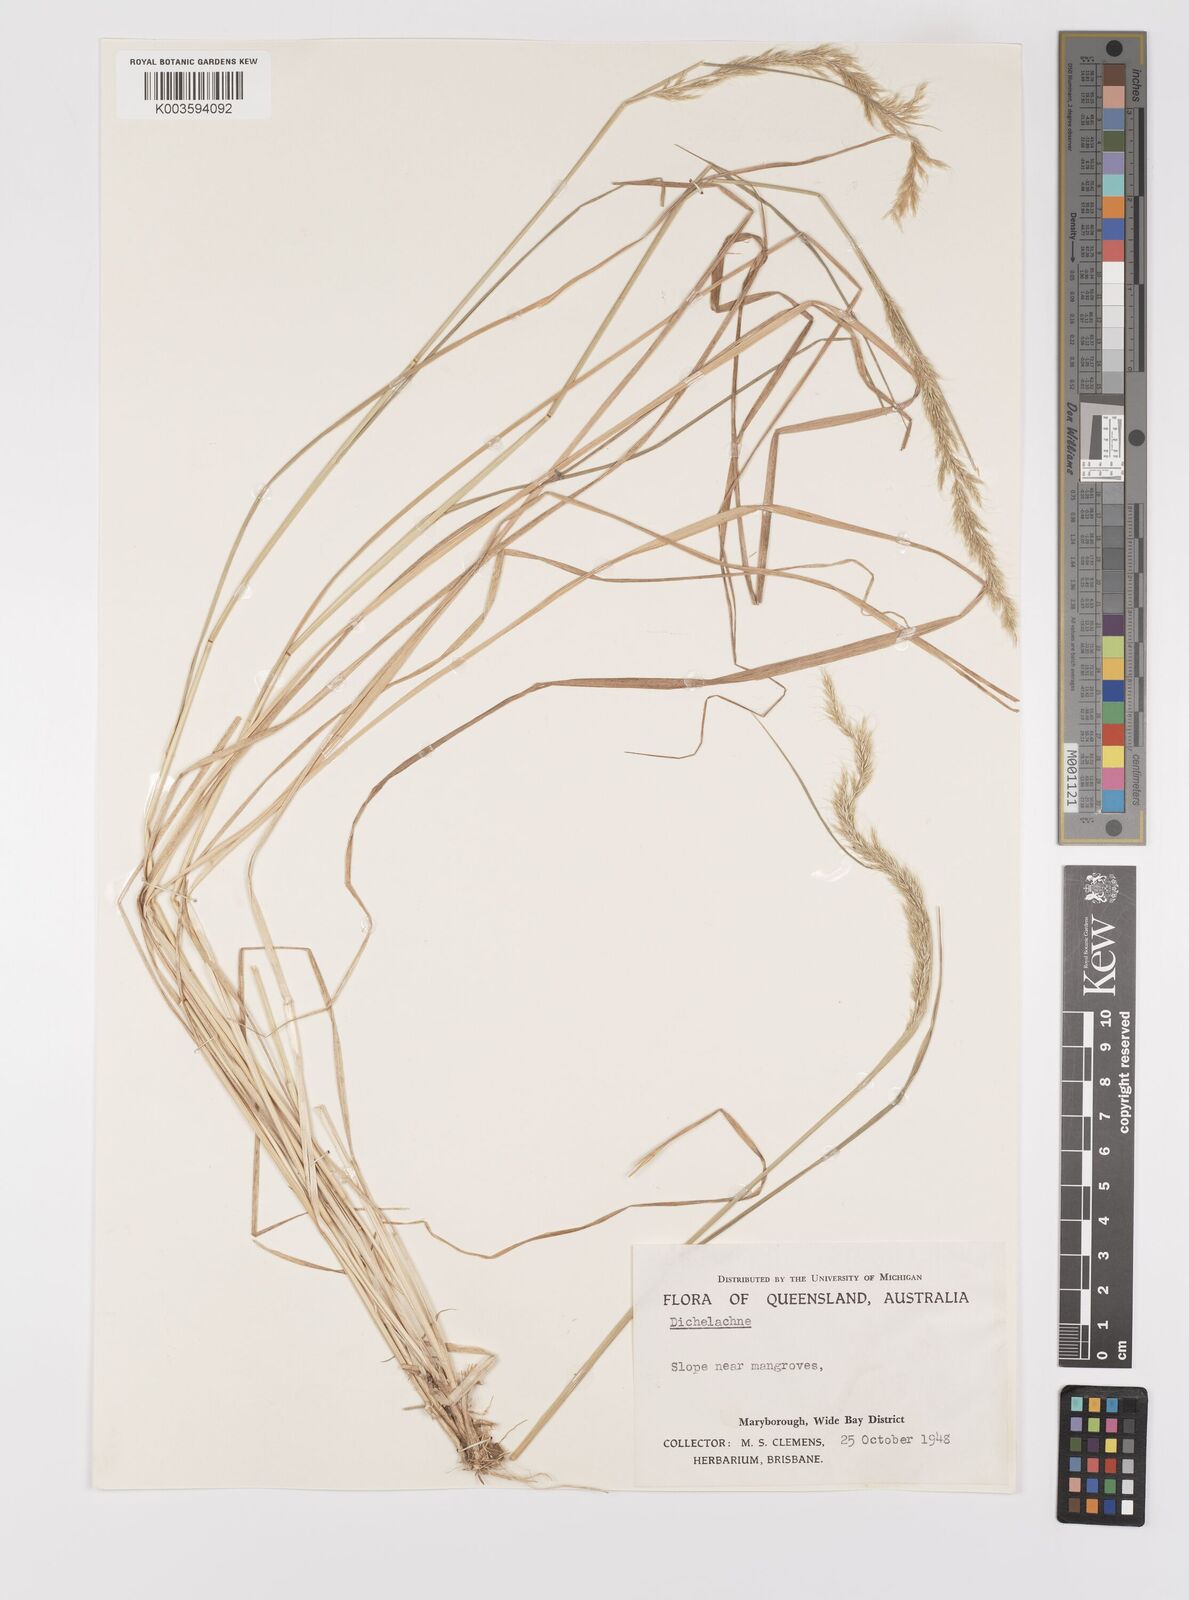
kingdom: Plantae
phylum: Tracheophyta
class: Liliopsida
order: Poales
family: Poaceae
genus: Dichelachne
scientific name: Dichelachne
